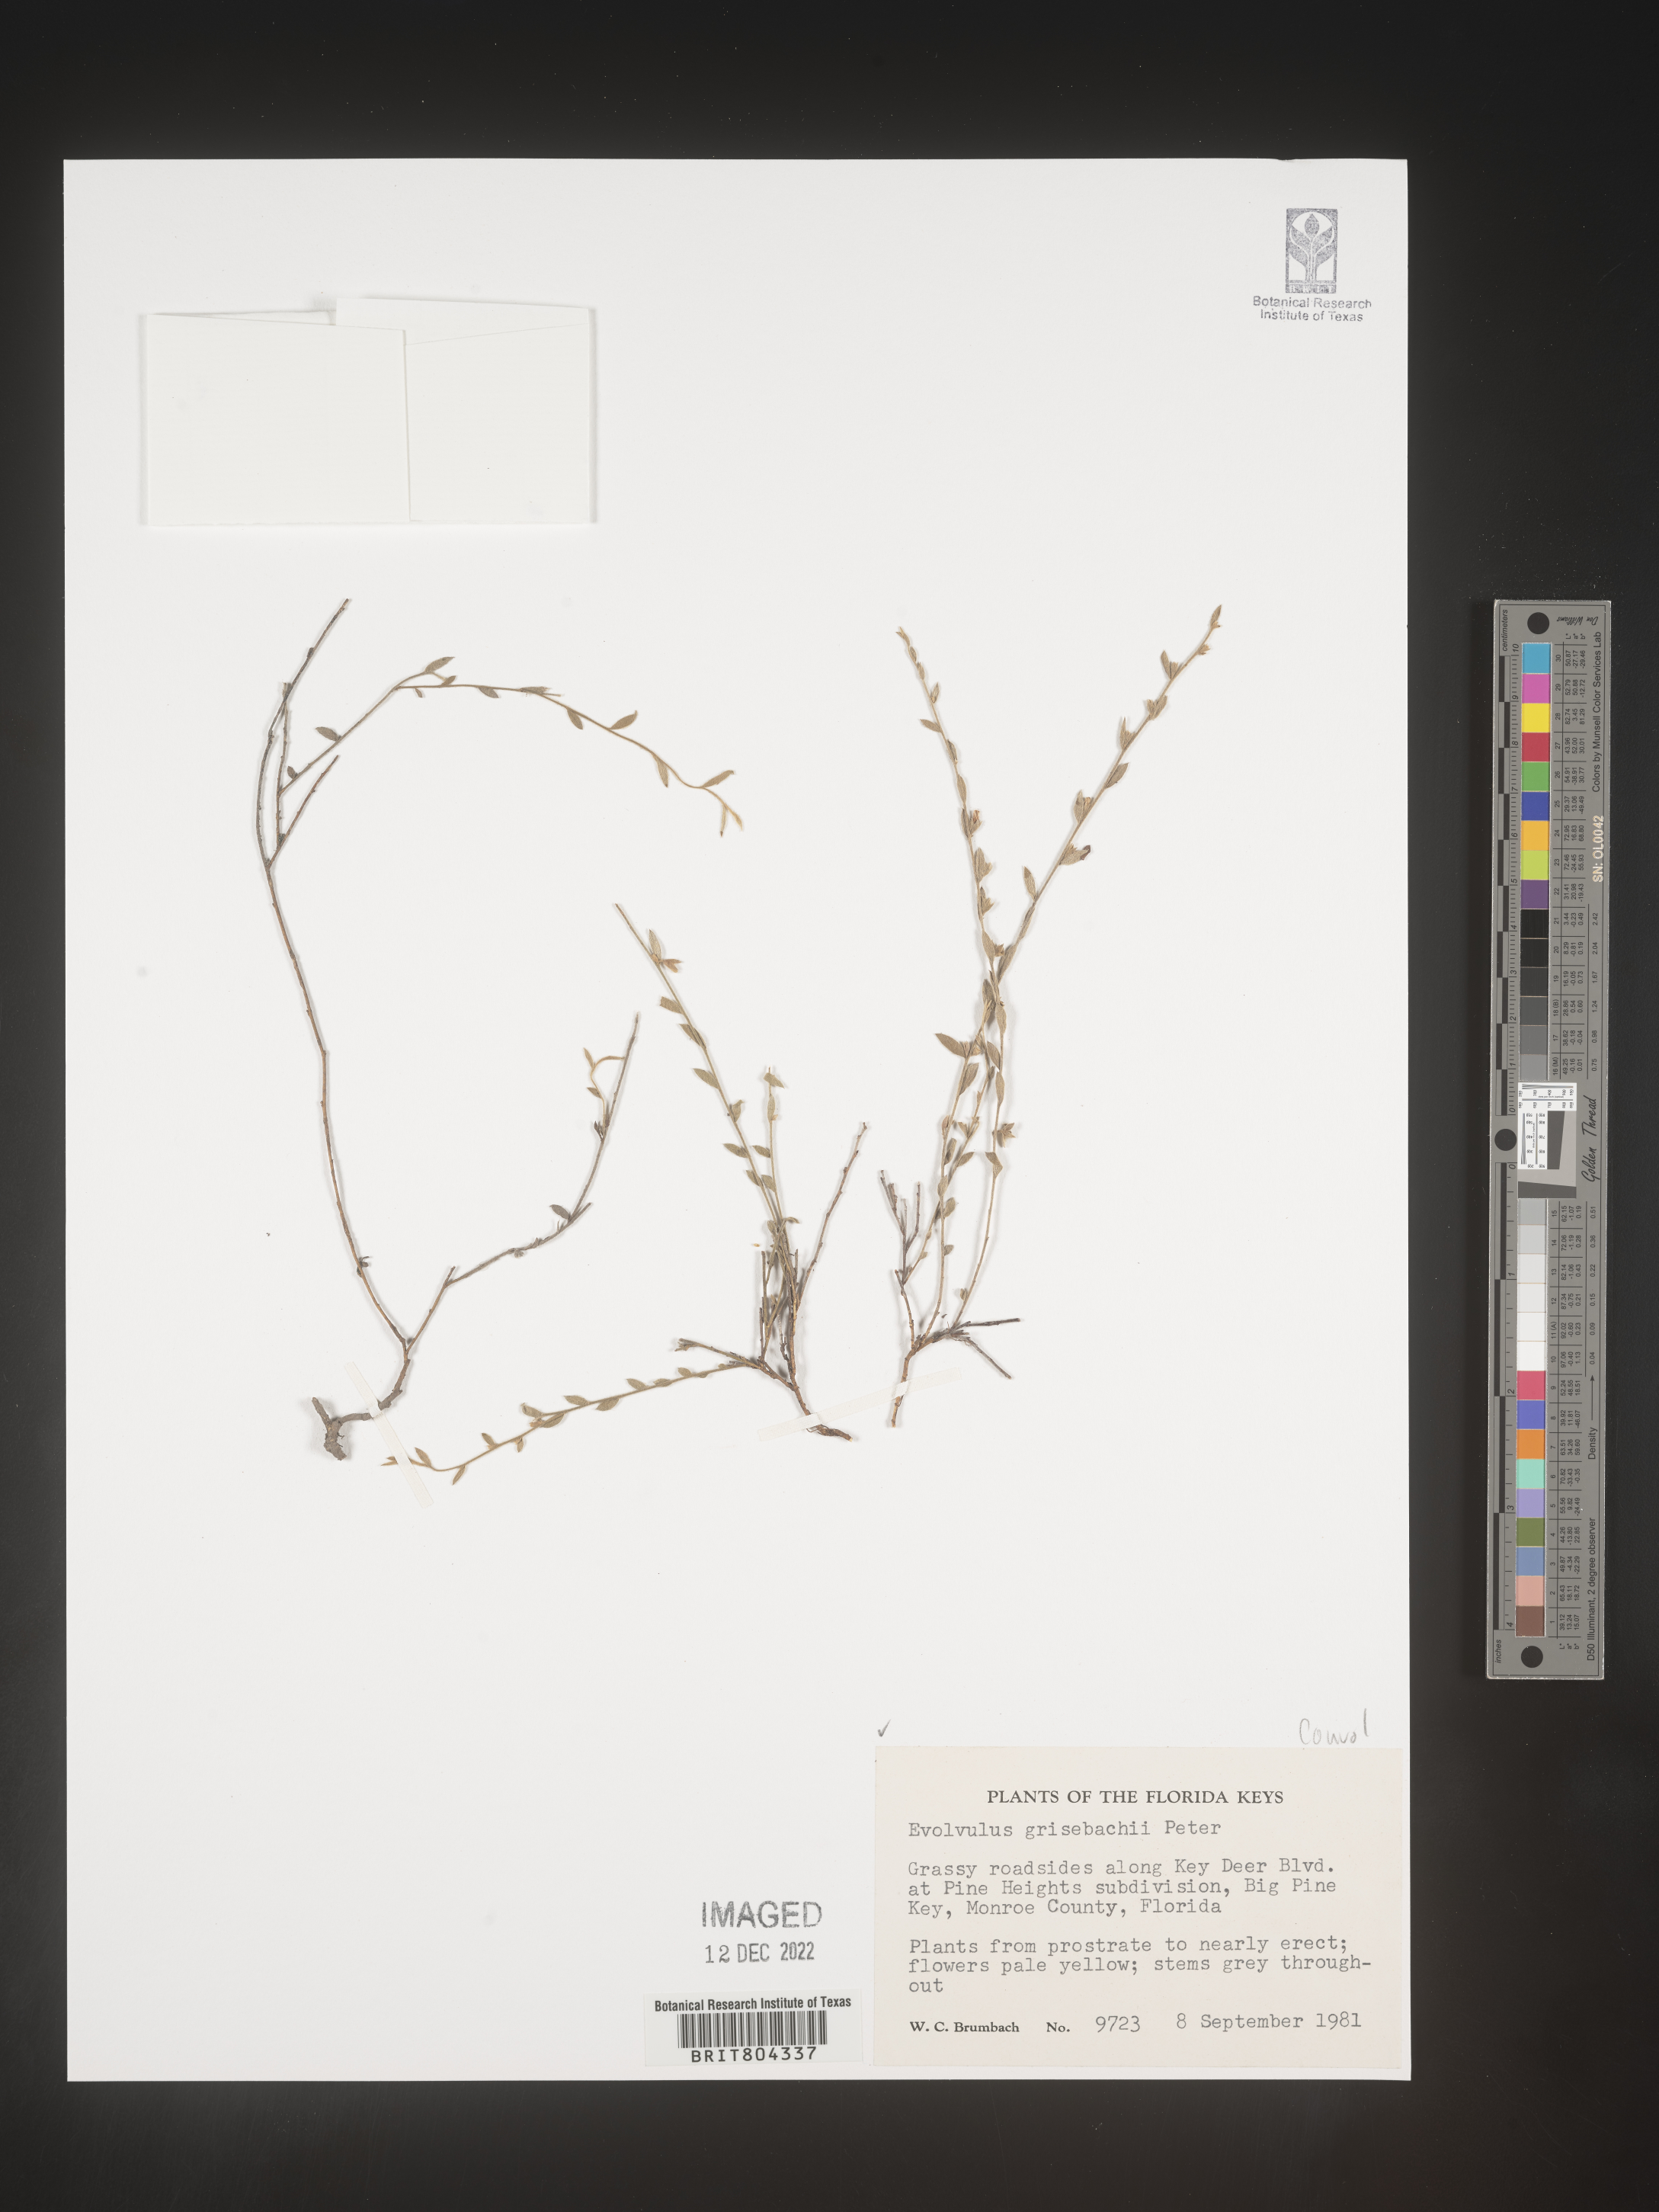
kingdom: Plantae
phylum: Tracheophyta
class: Magnoliopsida
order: Solanales
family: Convolvulaceae
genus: Evolvulus
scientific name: Evolvulus grisebachii
